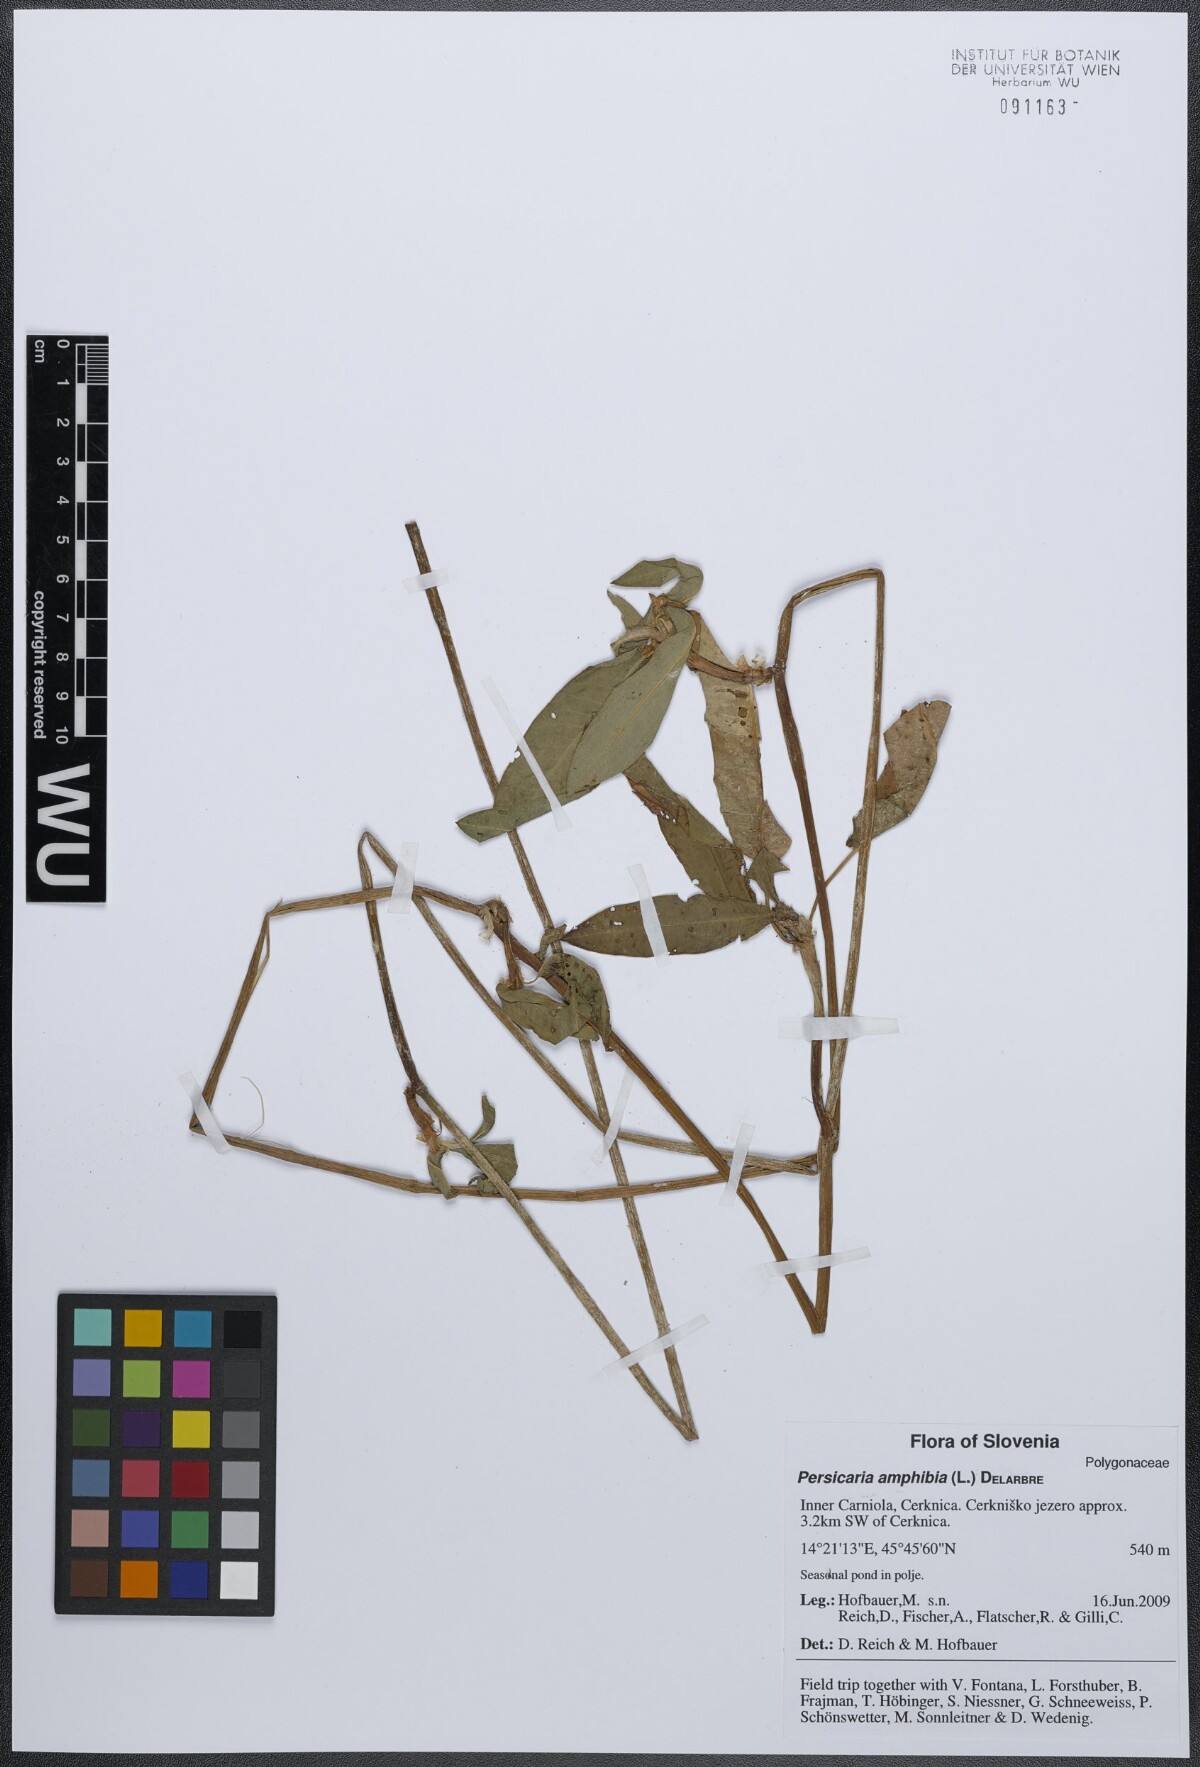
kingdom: Plantae
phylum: Tracheophyta
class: Magnoliopsida
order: Caryophyllales
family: Polygonaceae
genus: Persicaria
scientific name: Persicaria amphibia
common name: Amphibious bistort
